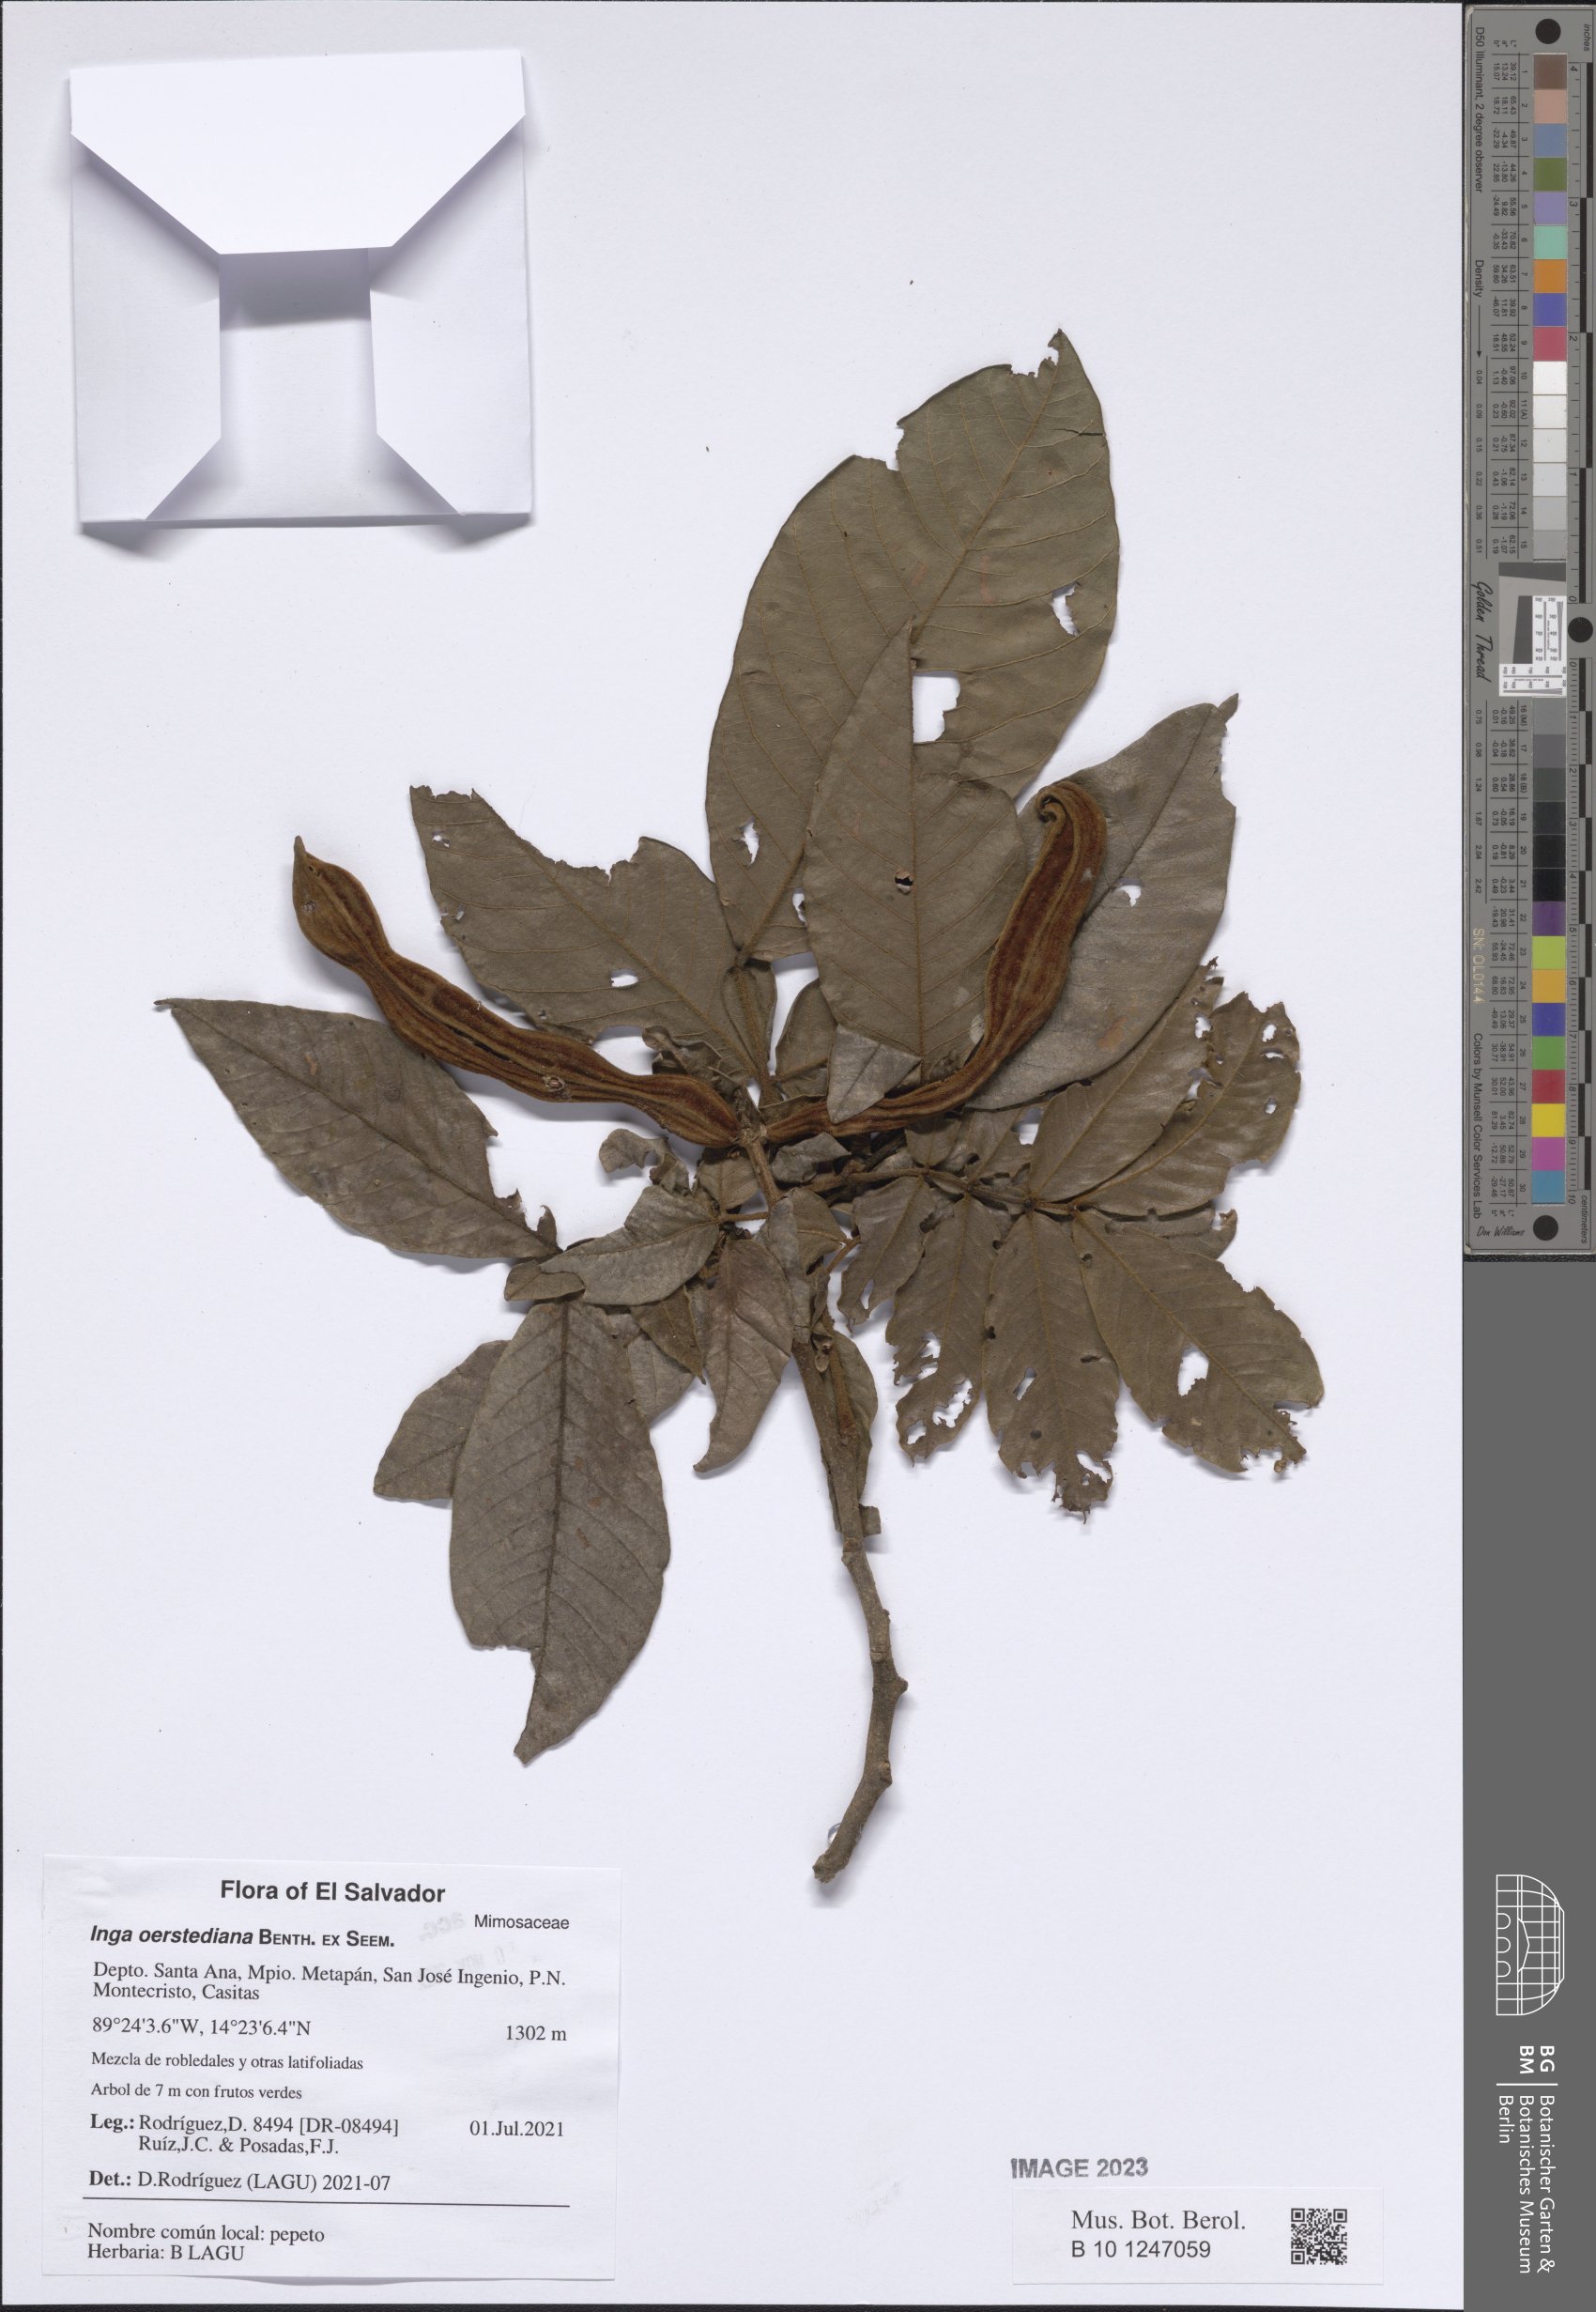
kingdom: Plantae
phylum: Tracheophyta
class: Magnoliopsida
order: Fabales
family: Fabaceae
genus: Inga
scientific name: Inga oerstediana
